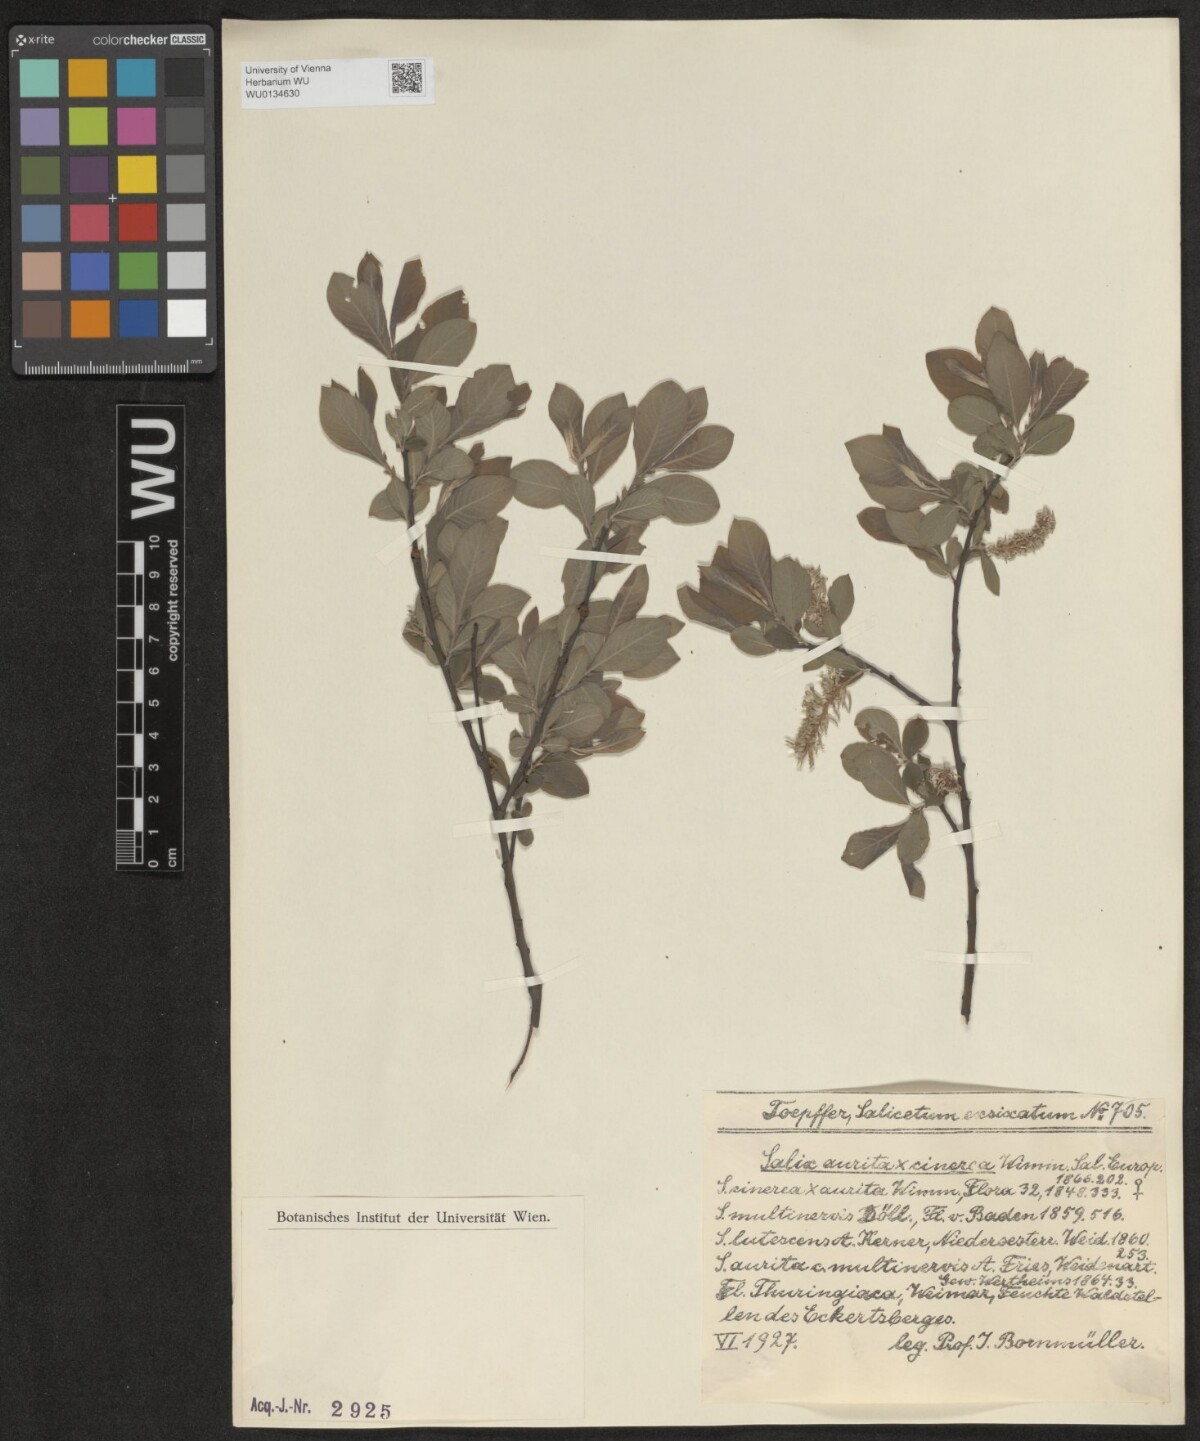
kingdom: Plantae
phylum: Tracheophyta
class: Magnoliopsida
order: Malpighiales
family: Salicaceae
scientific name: Salicaceae
